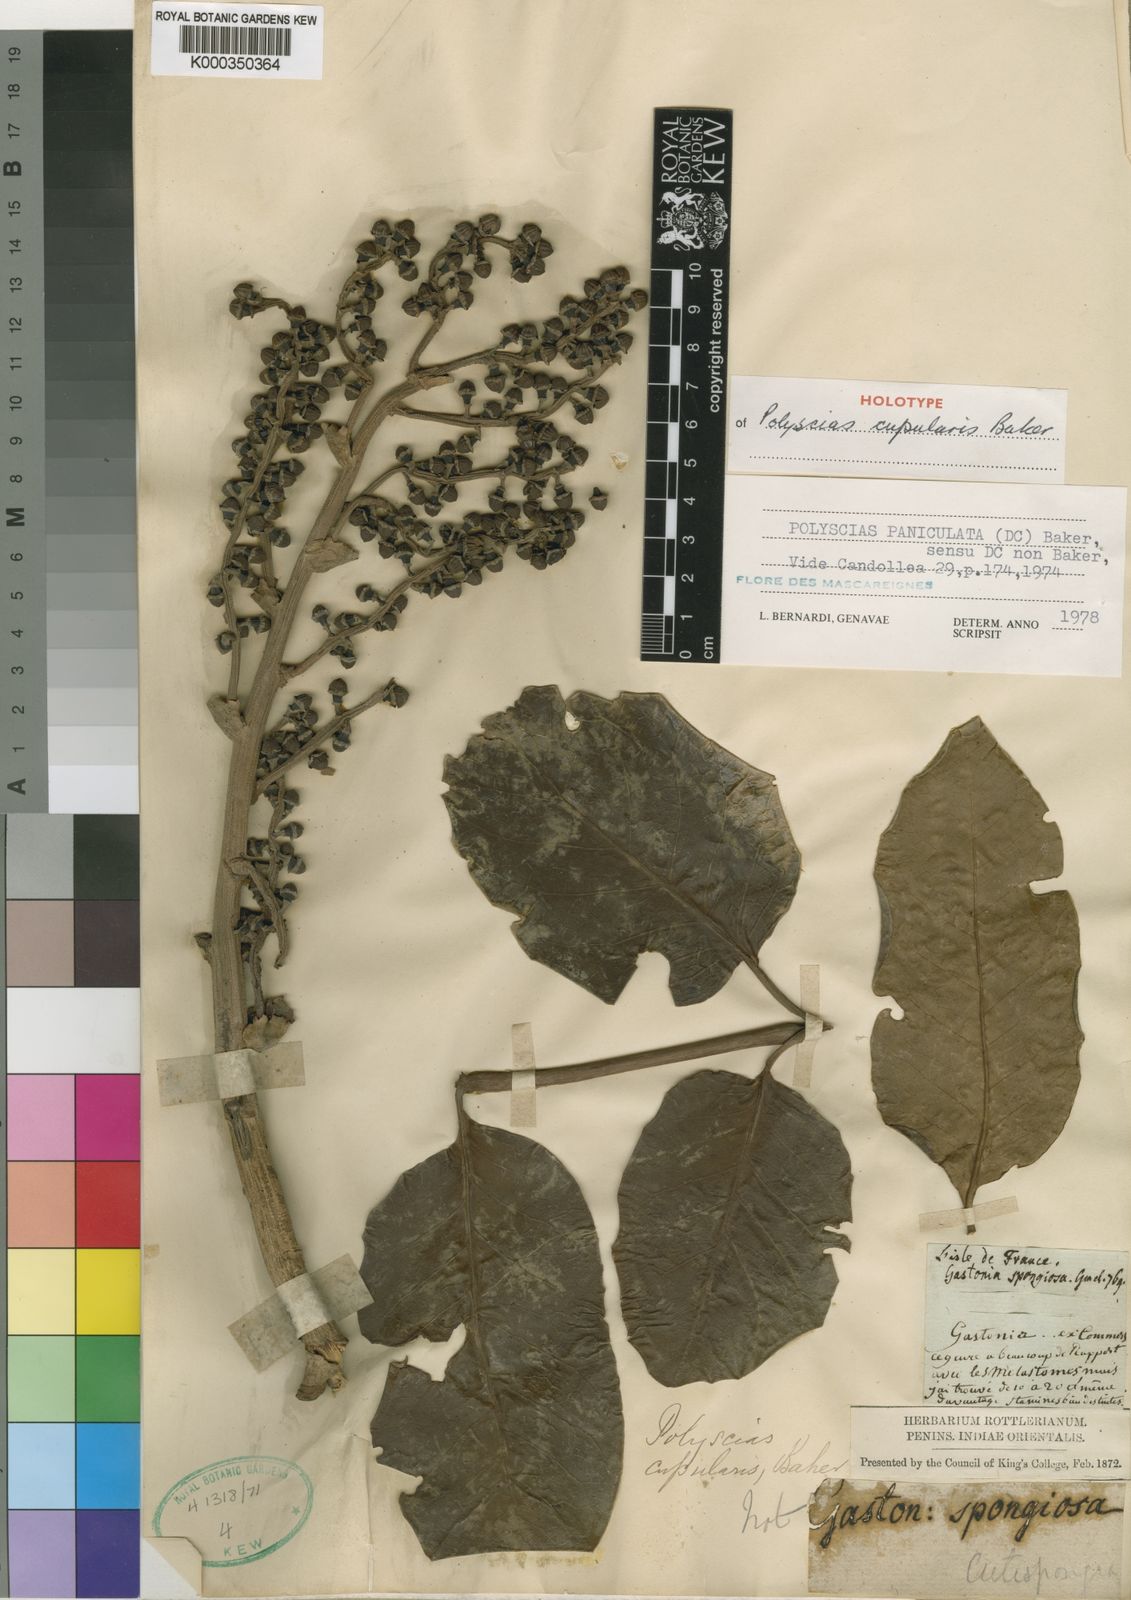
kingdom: Plantae
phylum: Tracheophyta
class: Magnoliopsida
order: Apiales
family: Araliaceae
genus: Polyscias
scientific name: Polyscias paniculata
